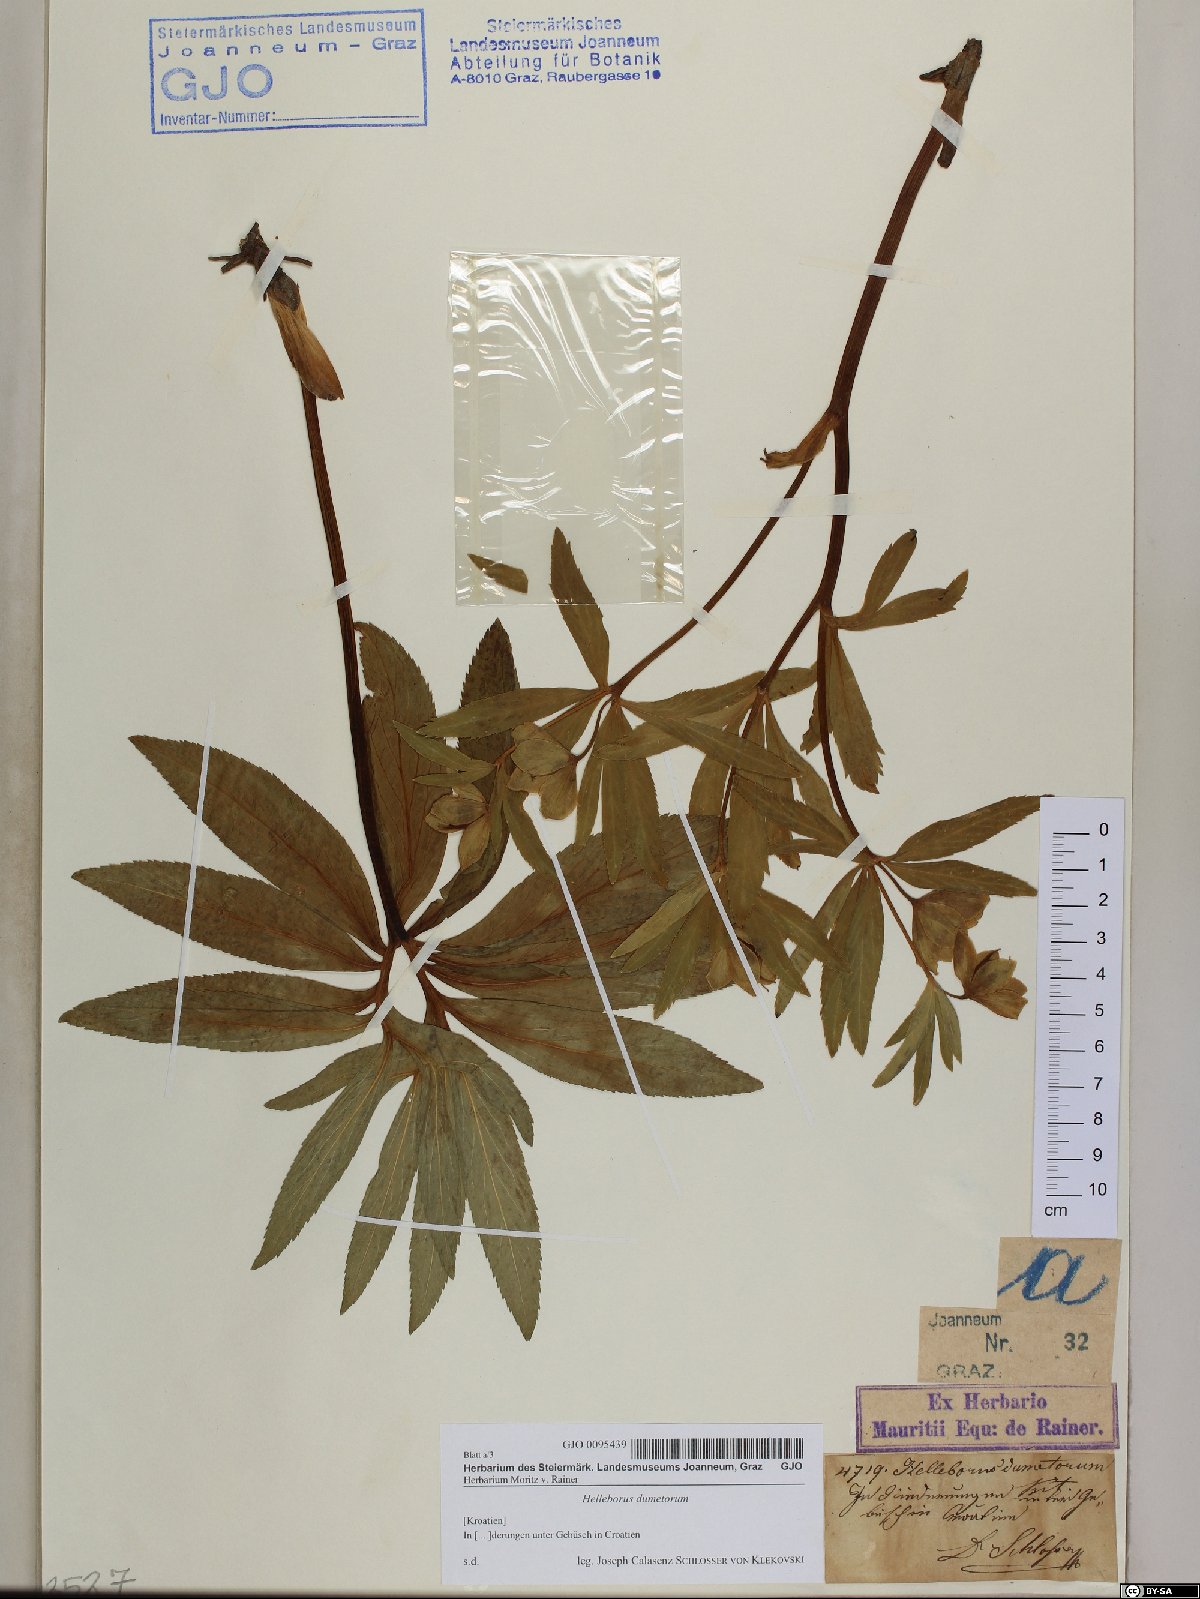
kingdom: Plantae
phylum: Tracheophyta
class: Magnoliopsida
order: Ranunculales
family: Ranunculaceae
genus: Helleborus
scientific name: Helleborus dumetorum
